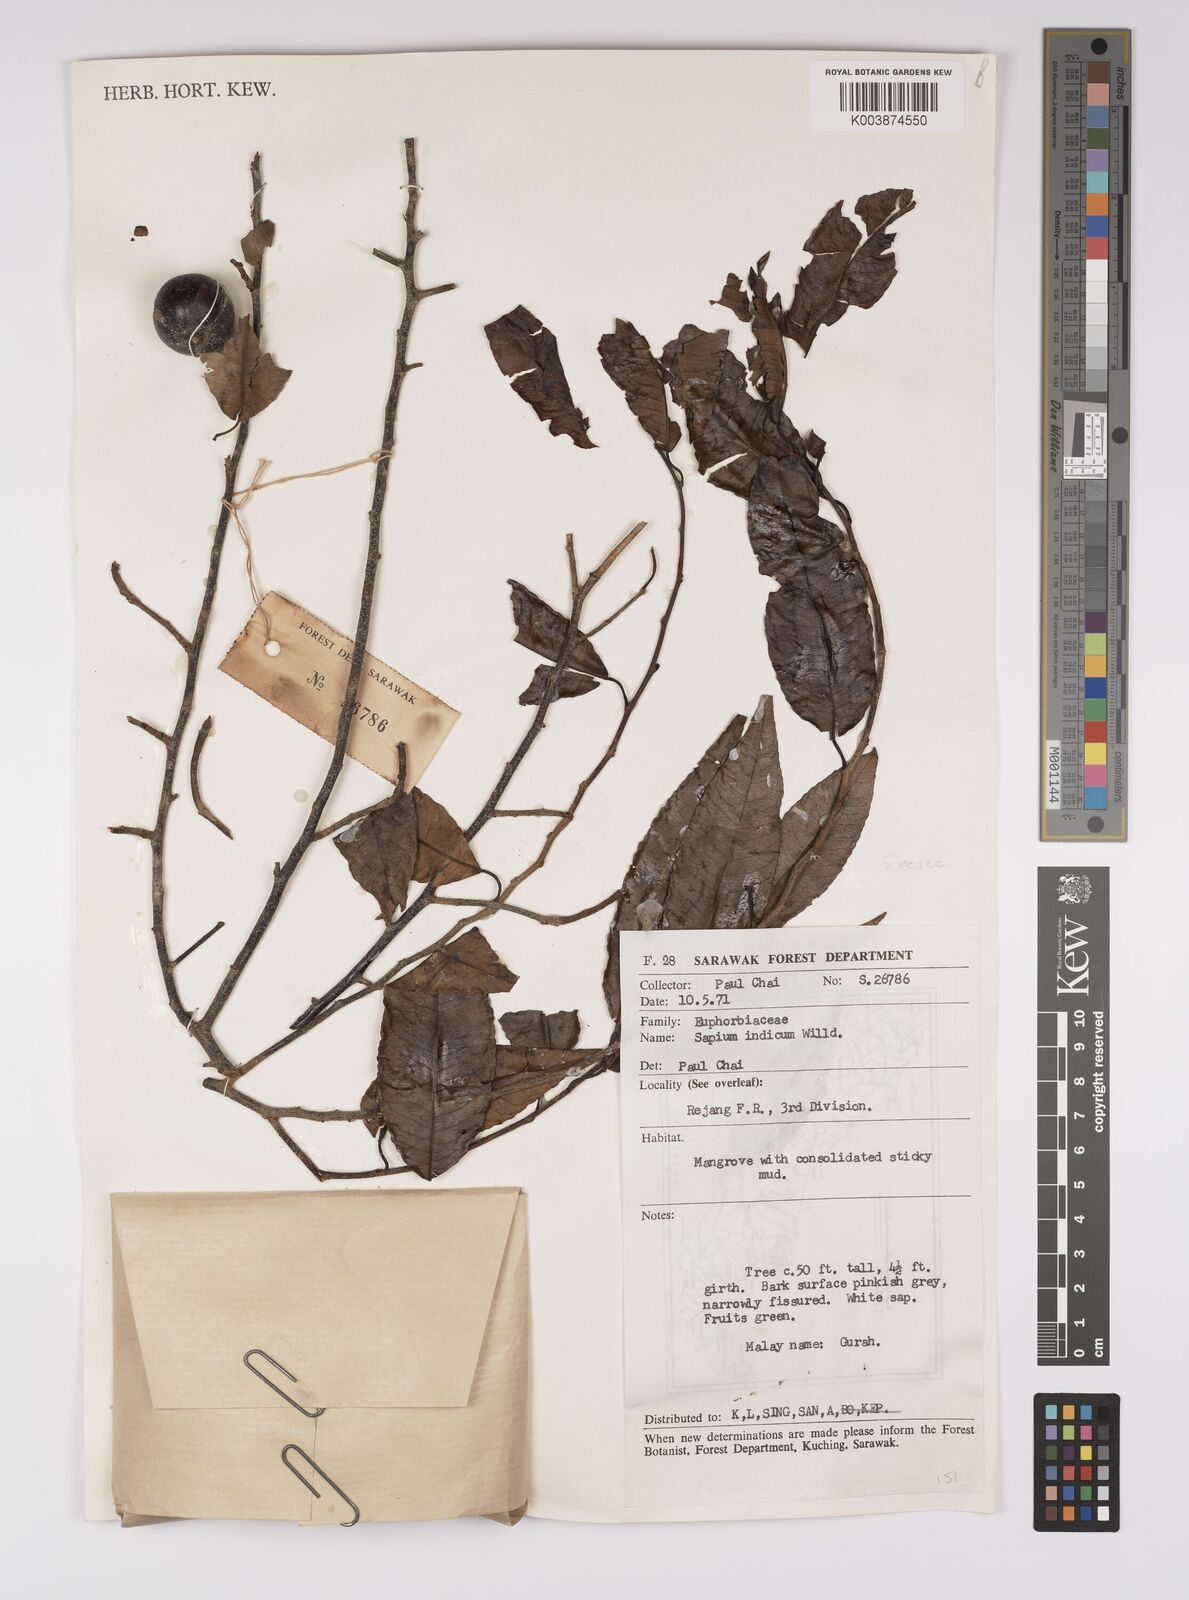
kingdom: Plantae
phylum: Tracheophyta
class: Magnoliopsida
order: Malpighiales
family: Euphorbiaceae
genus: Shirakiopsis
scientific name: Shirakiopsis indica
